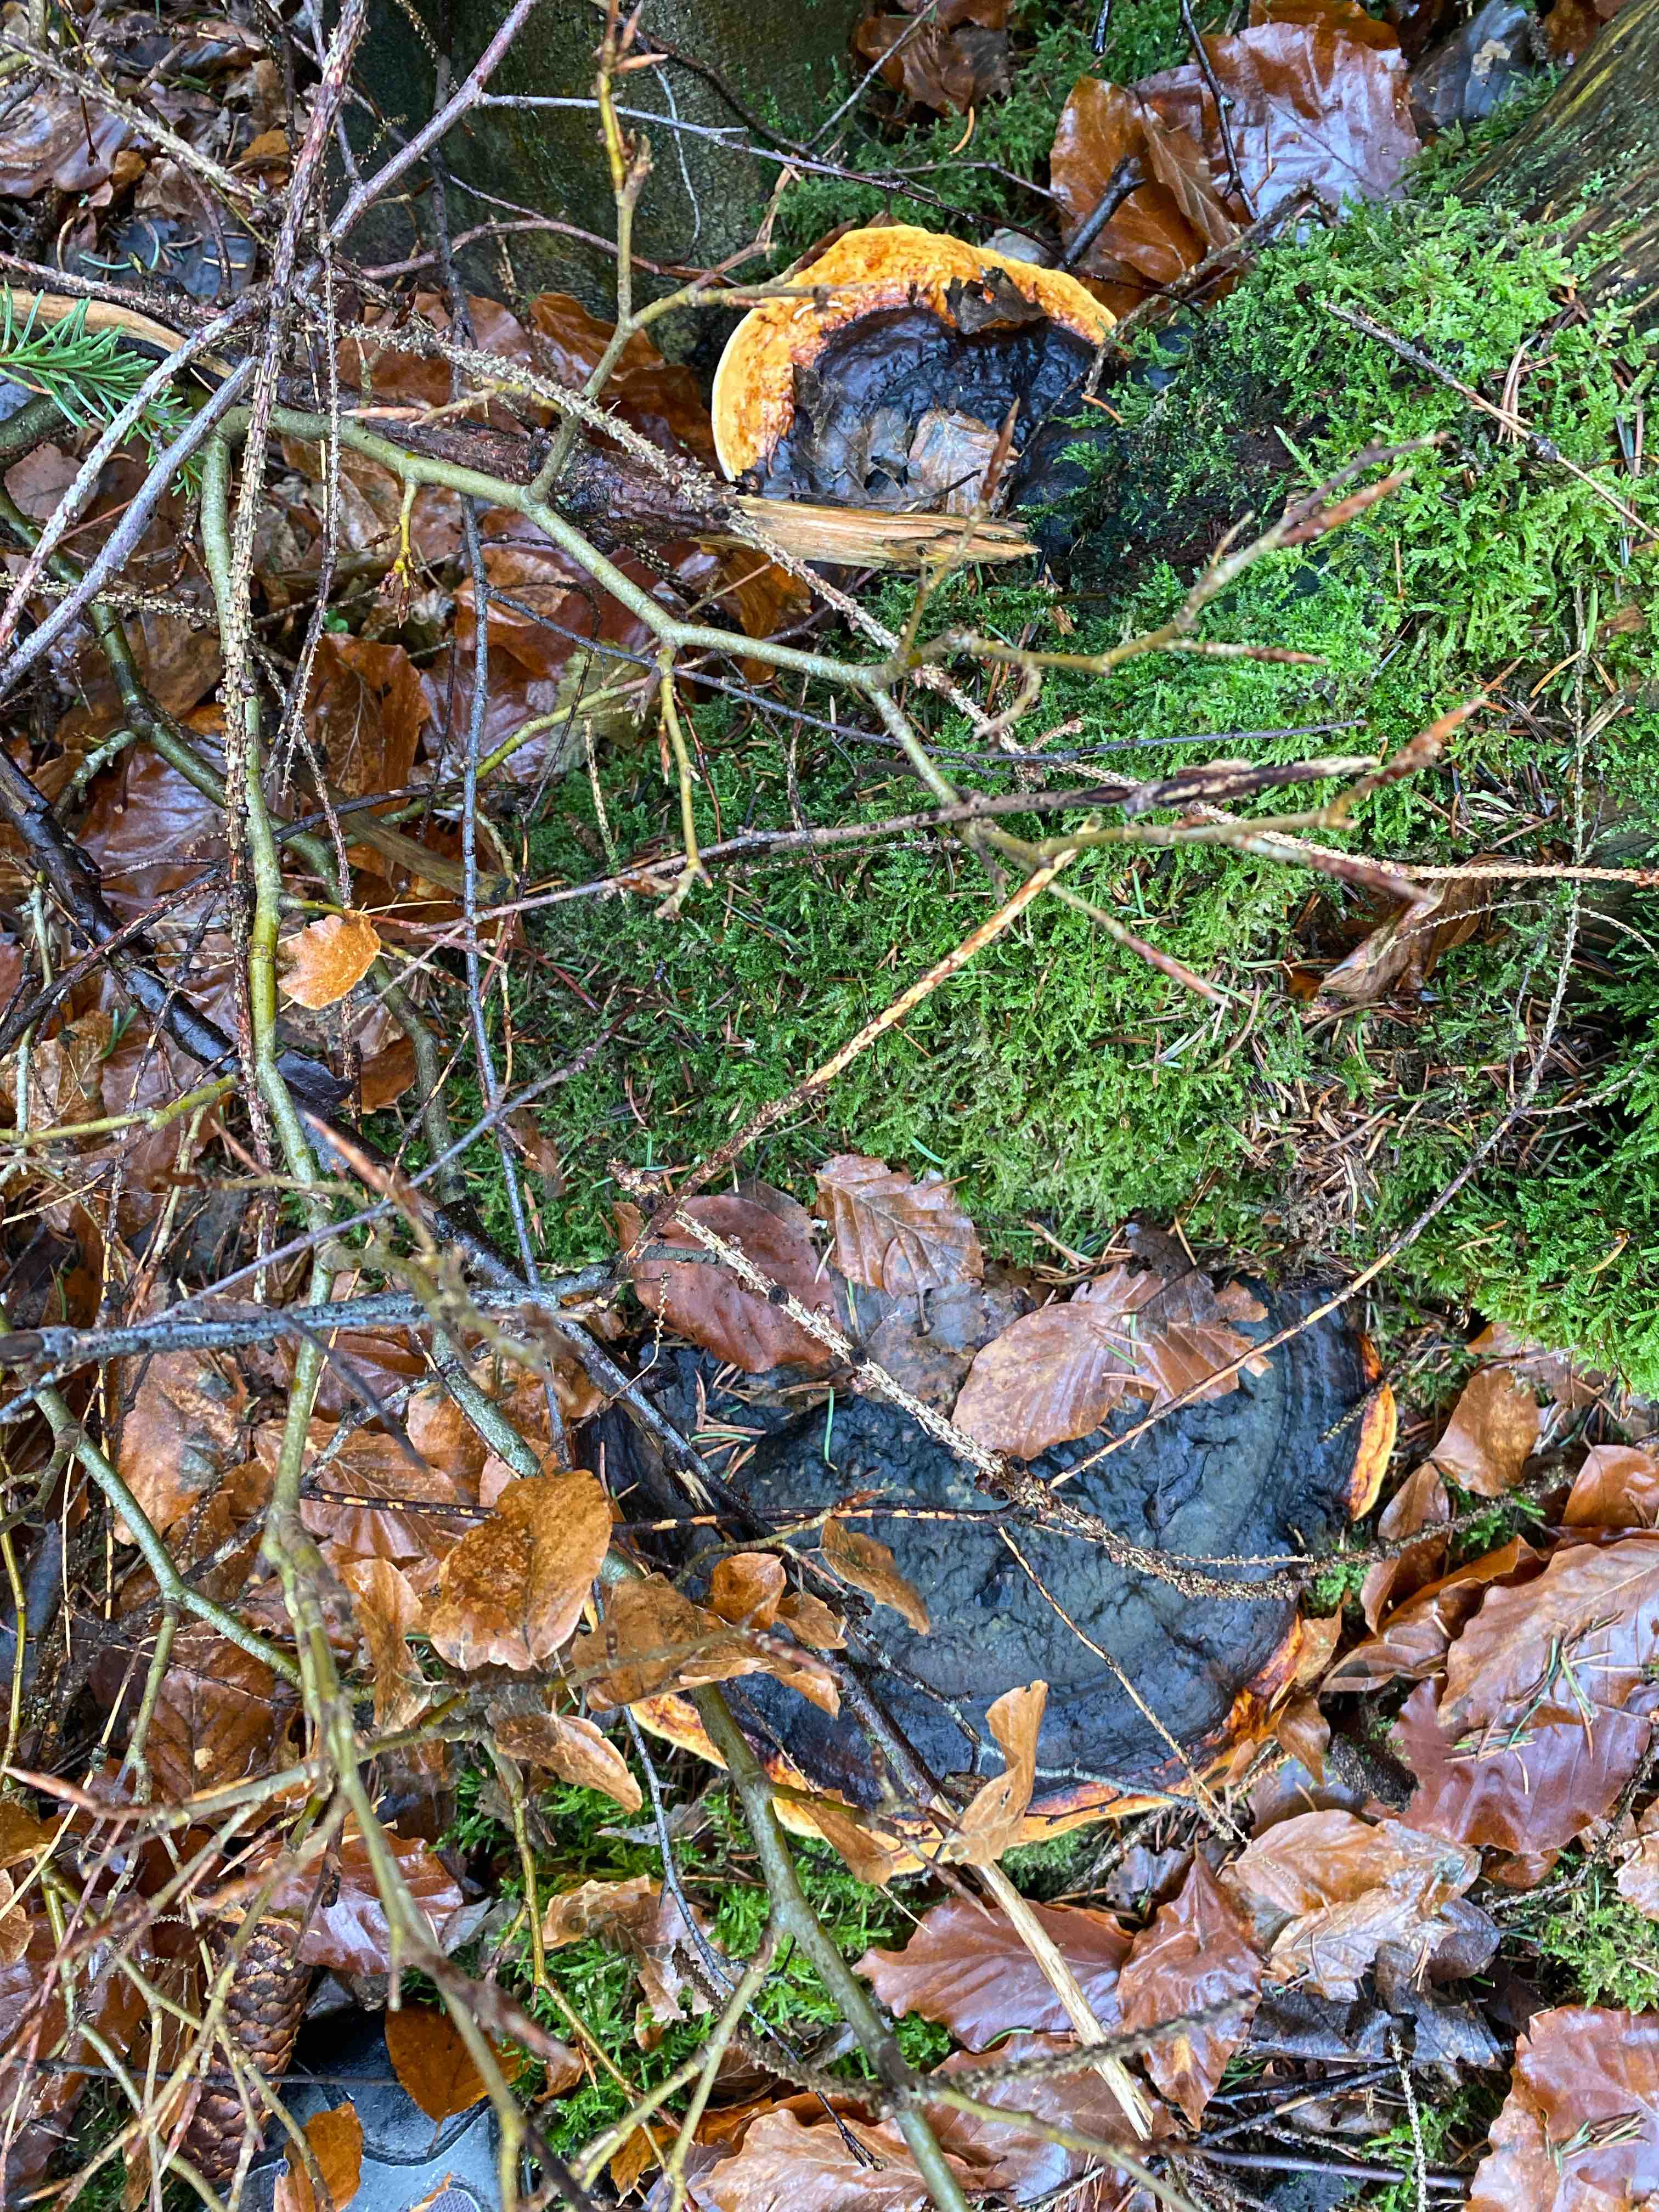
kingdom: Fungi
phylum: Basidiomycota
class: Agaricomycetes
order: Polyporales
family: Fomitopsidaceae
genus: Fomitopsis
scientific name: Fomitopsis pinicola
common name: randbæltet hovporesvamp
